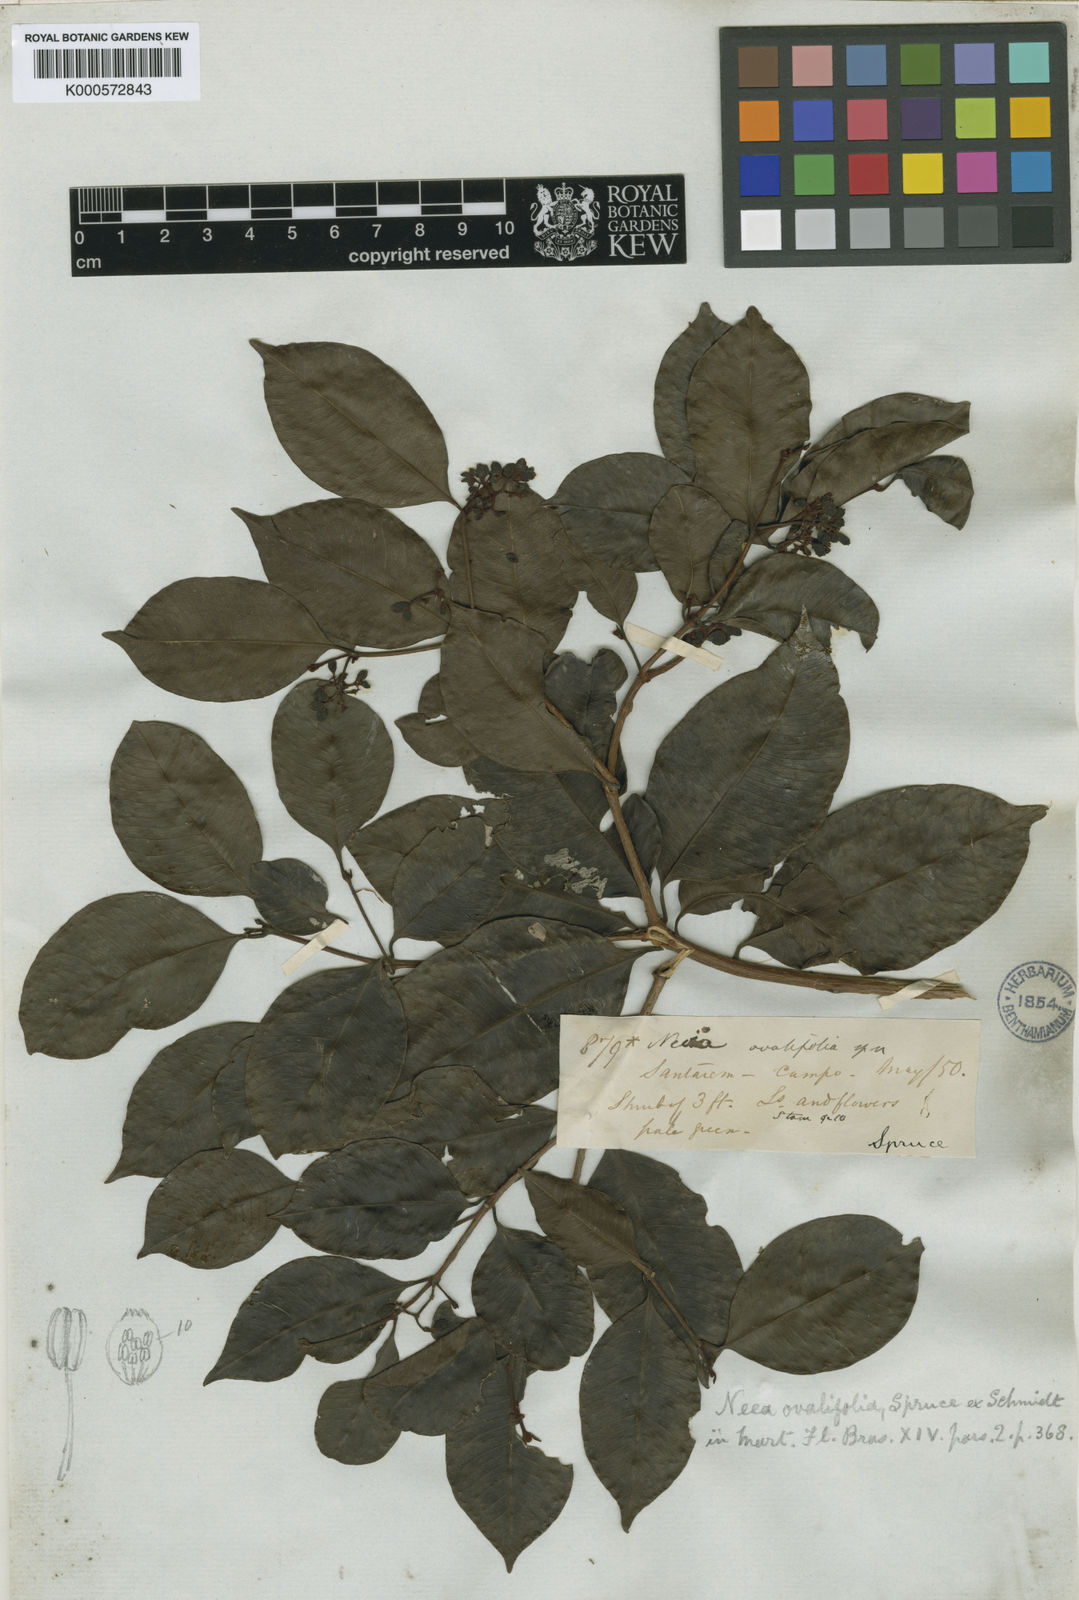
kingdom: Plantae
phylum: Tracheophyta
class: Magnoliopsida
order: Caryophyllales
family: Nyctaginaceae
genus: Neea
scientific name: Neea ovalifolia
